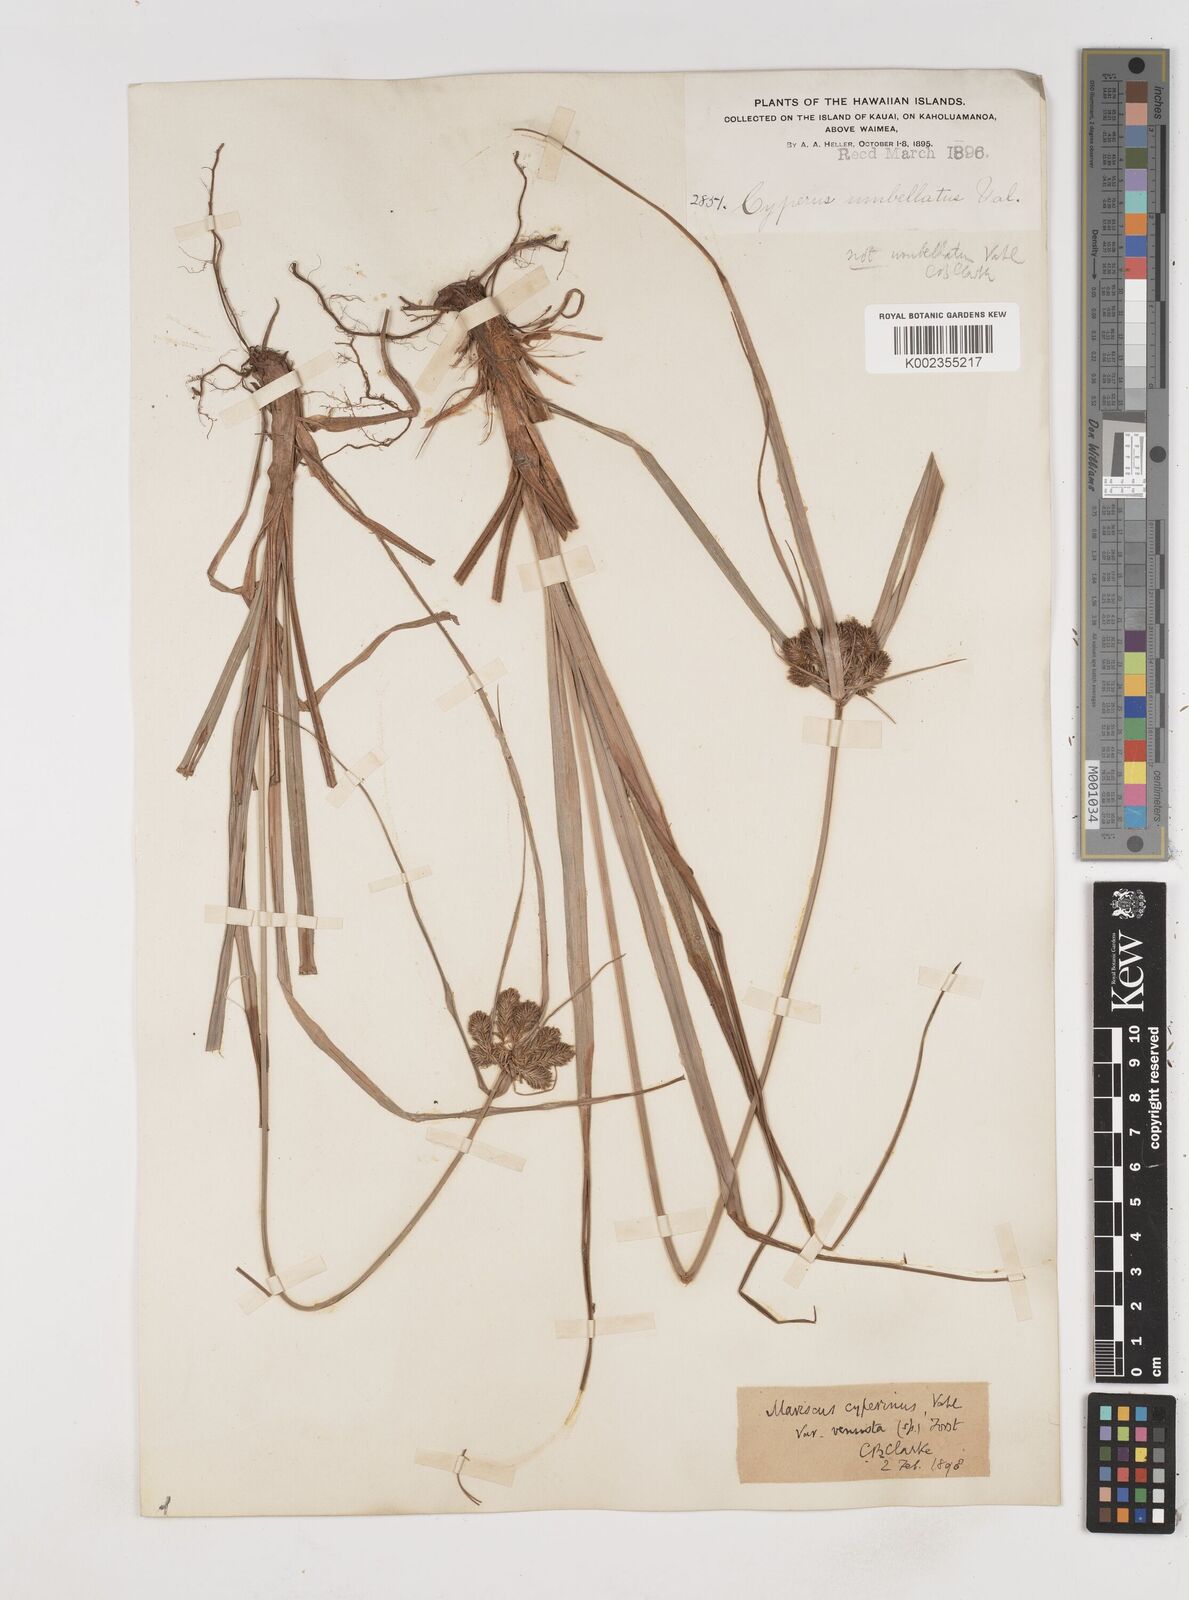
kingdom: Plantae
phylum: Tracheophyta
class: Liliopsida
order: Poales
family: Cyperaceae
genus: Cyperus
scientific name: Cyperus cyperinus
